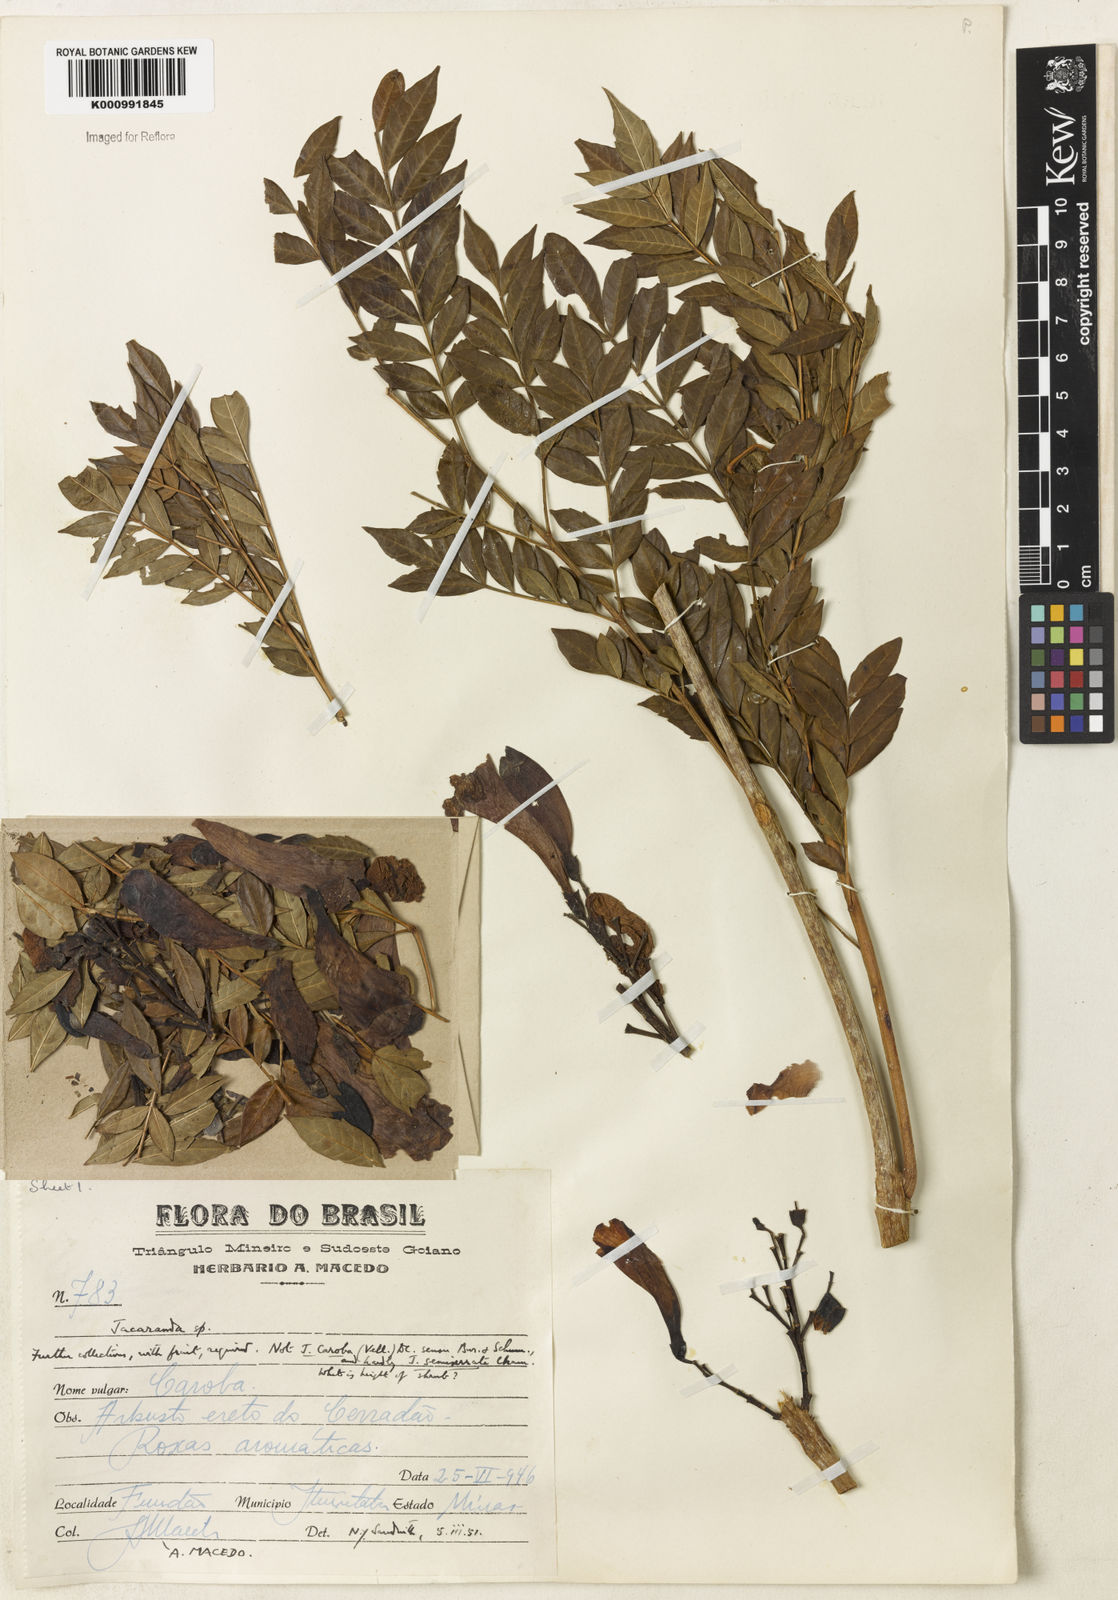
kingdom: Plantae
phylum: Tracheophyta
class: Magnoliopsida
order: Lamiales
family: Bignoniaceae
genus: Jacaranda
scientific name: Jacaranda mutabilis
